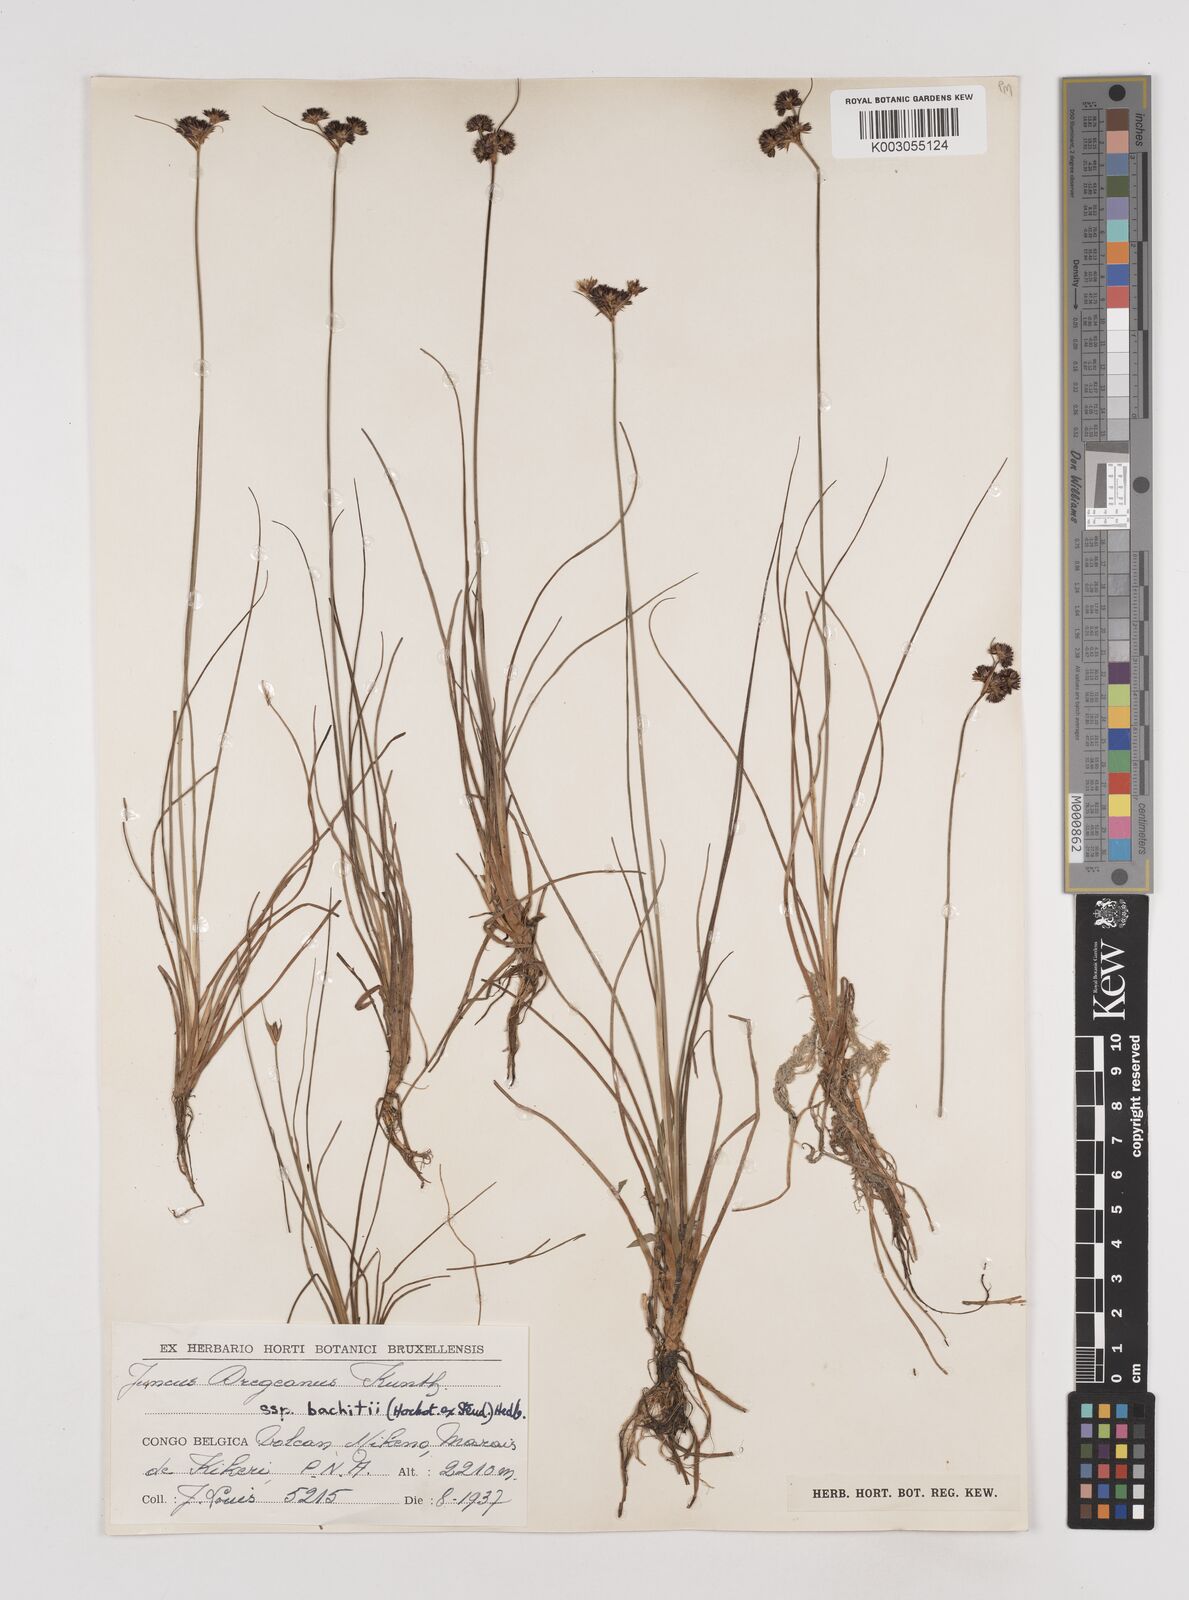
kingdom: Plantae
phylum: Tracheophyta
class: Liliopsida
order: Poales
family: Juncaceae
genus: Juncus
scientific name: Juncus dregeanus
